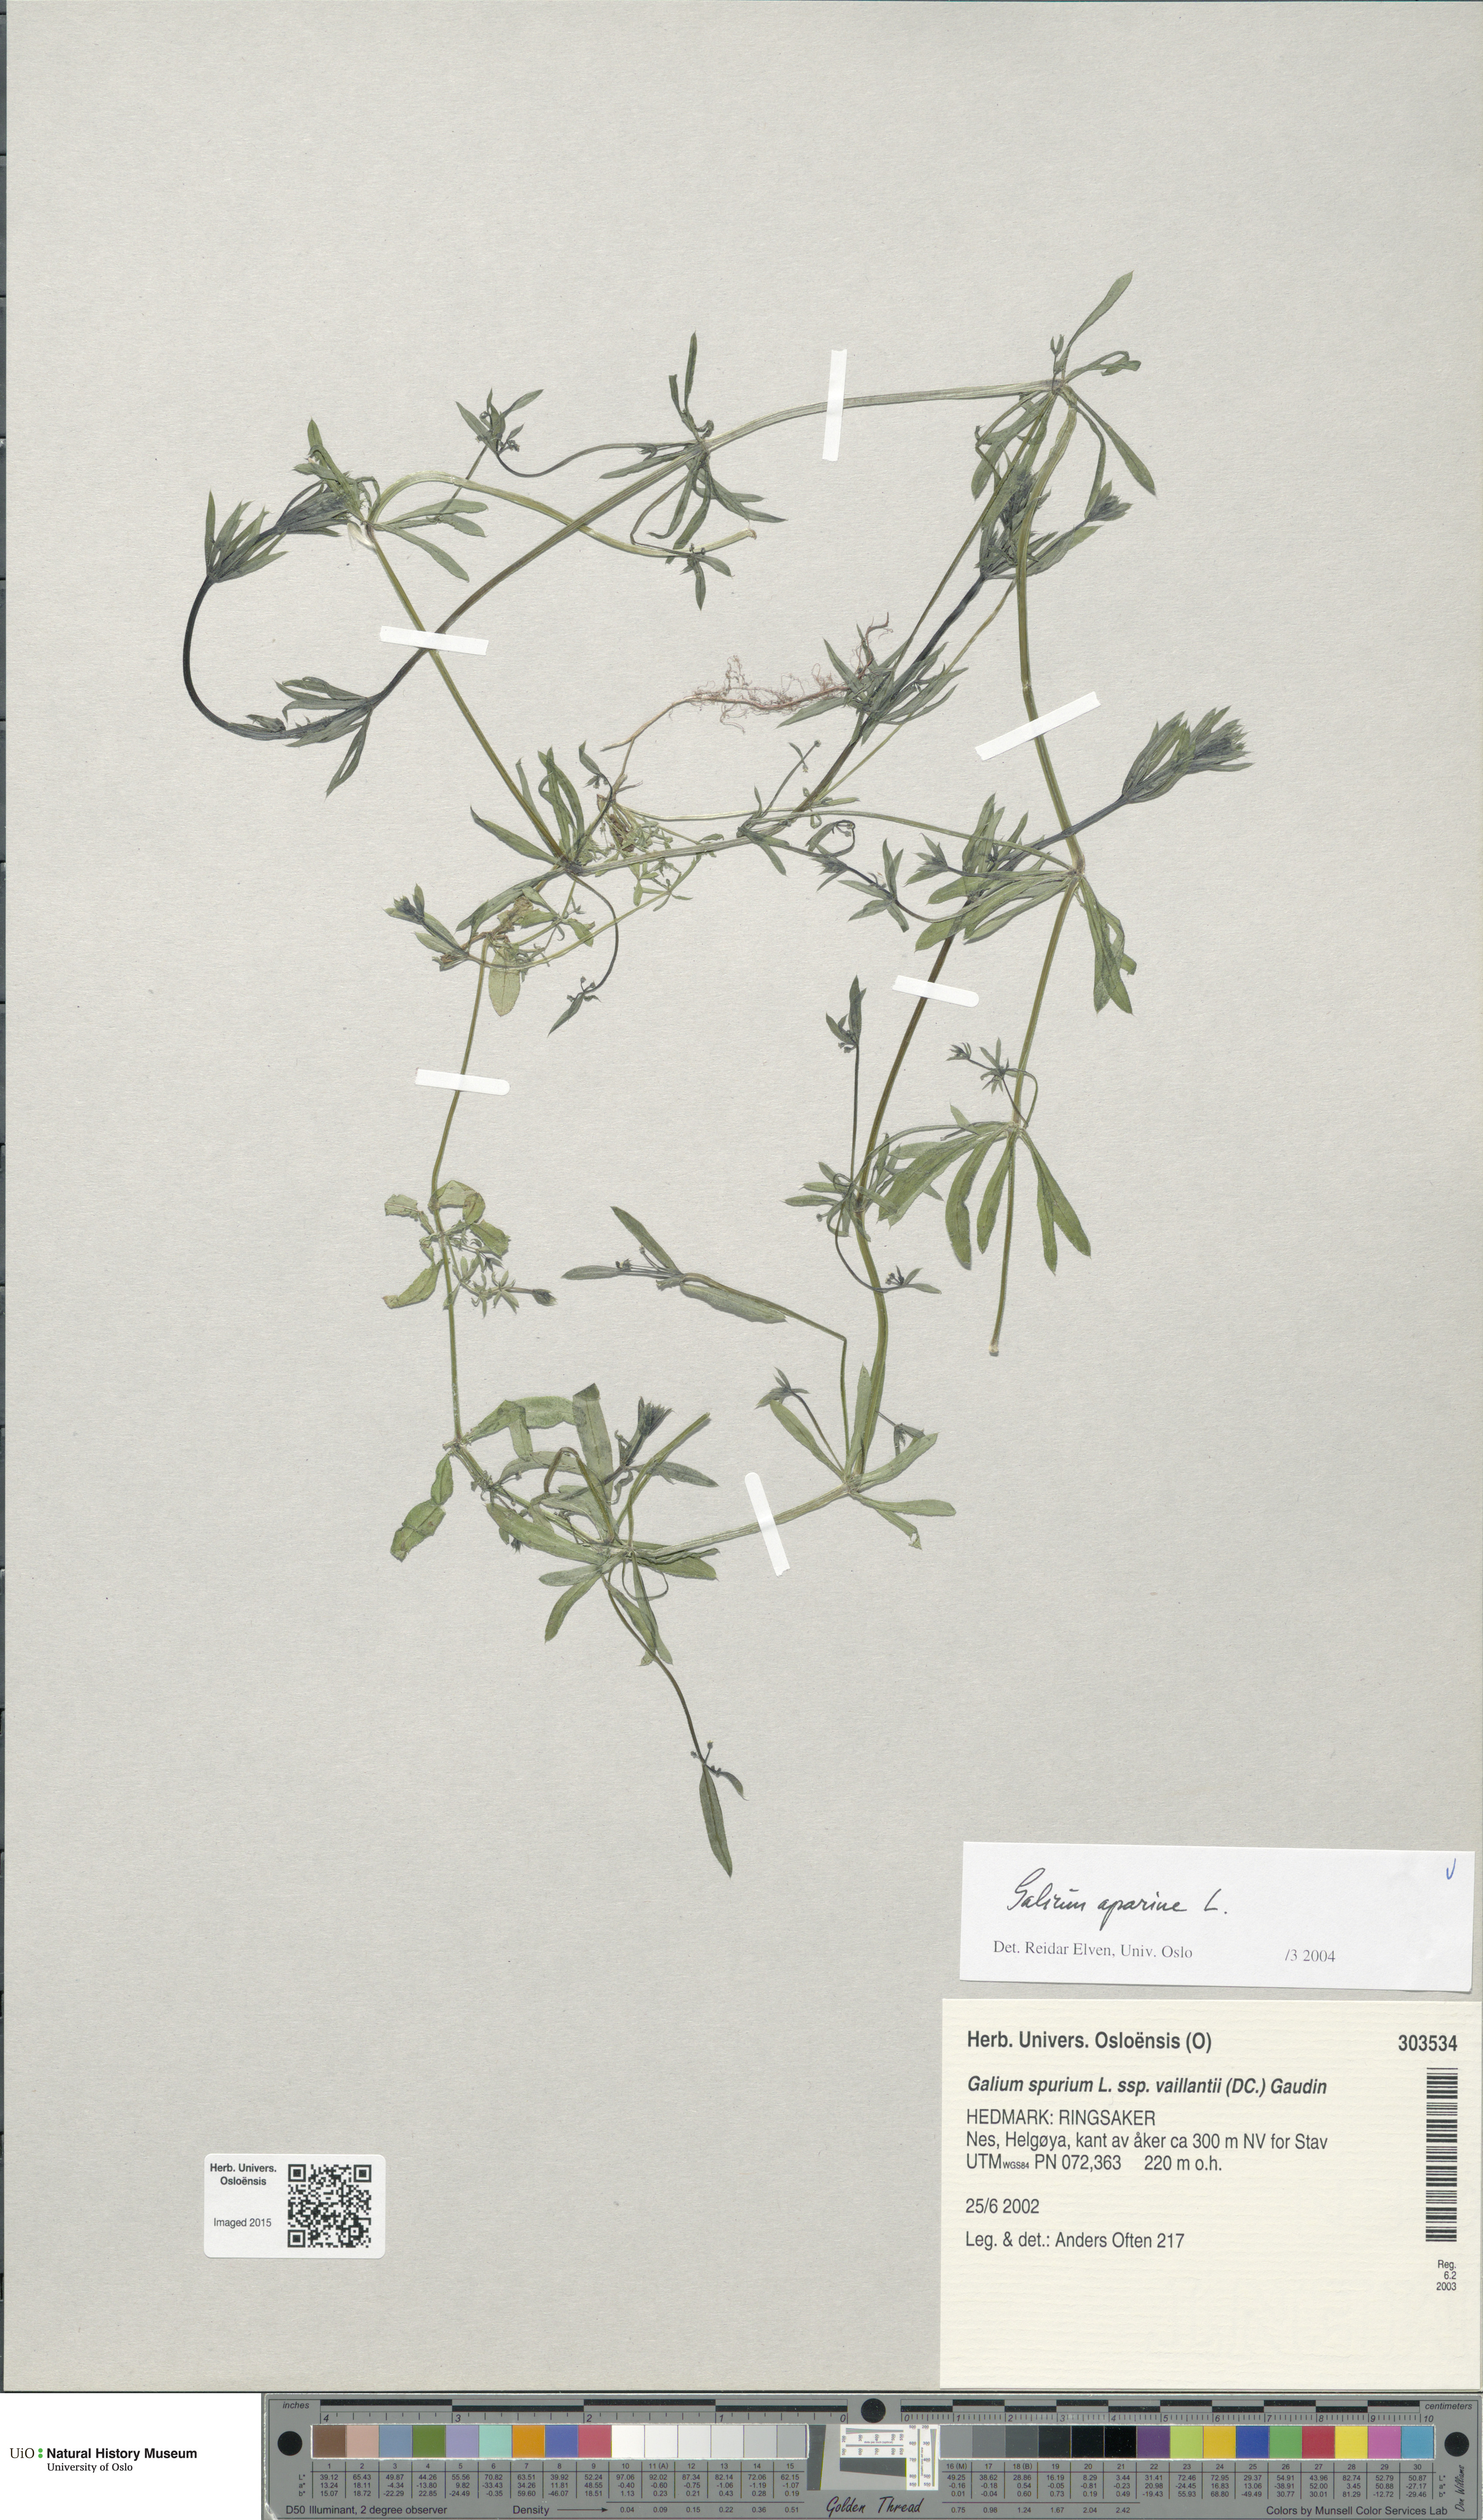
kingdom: Plantae
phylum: Tracheophyta
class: Magnoliopsida
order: Gentianales
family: Rubiaceae
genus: Galium
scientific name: Galium aparine
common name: Cleavers
